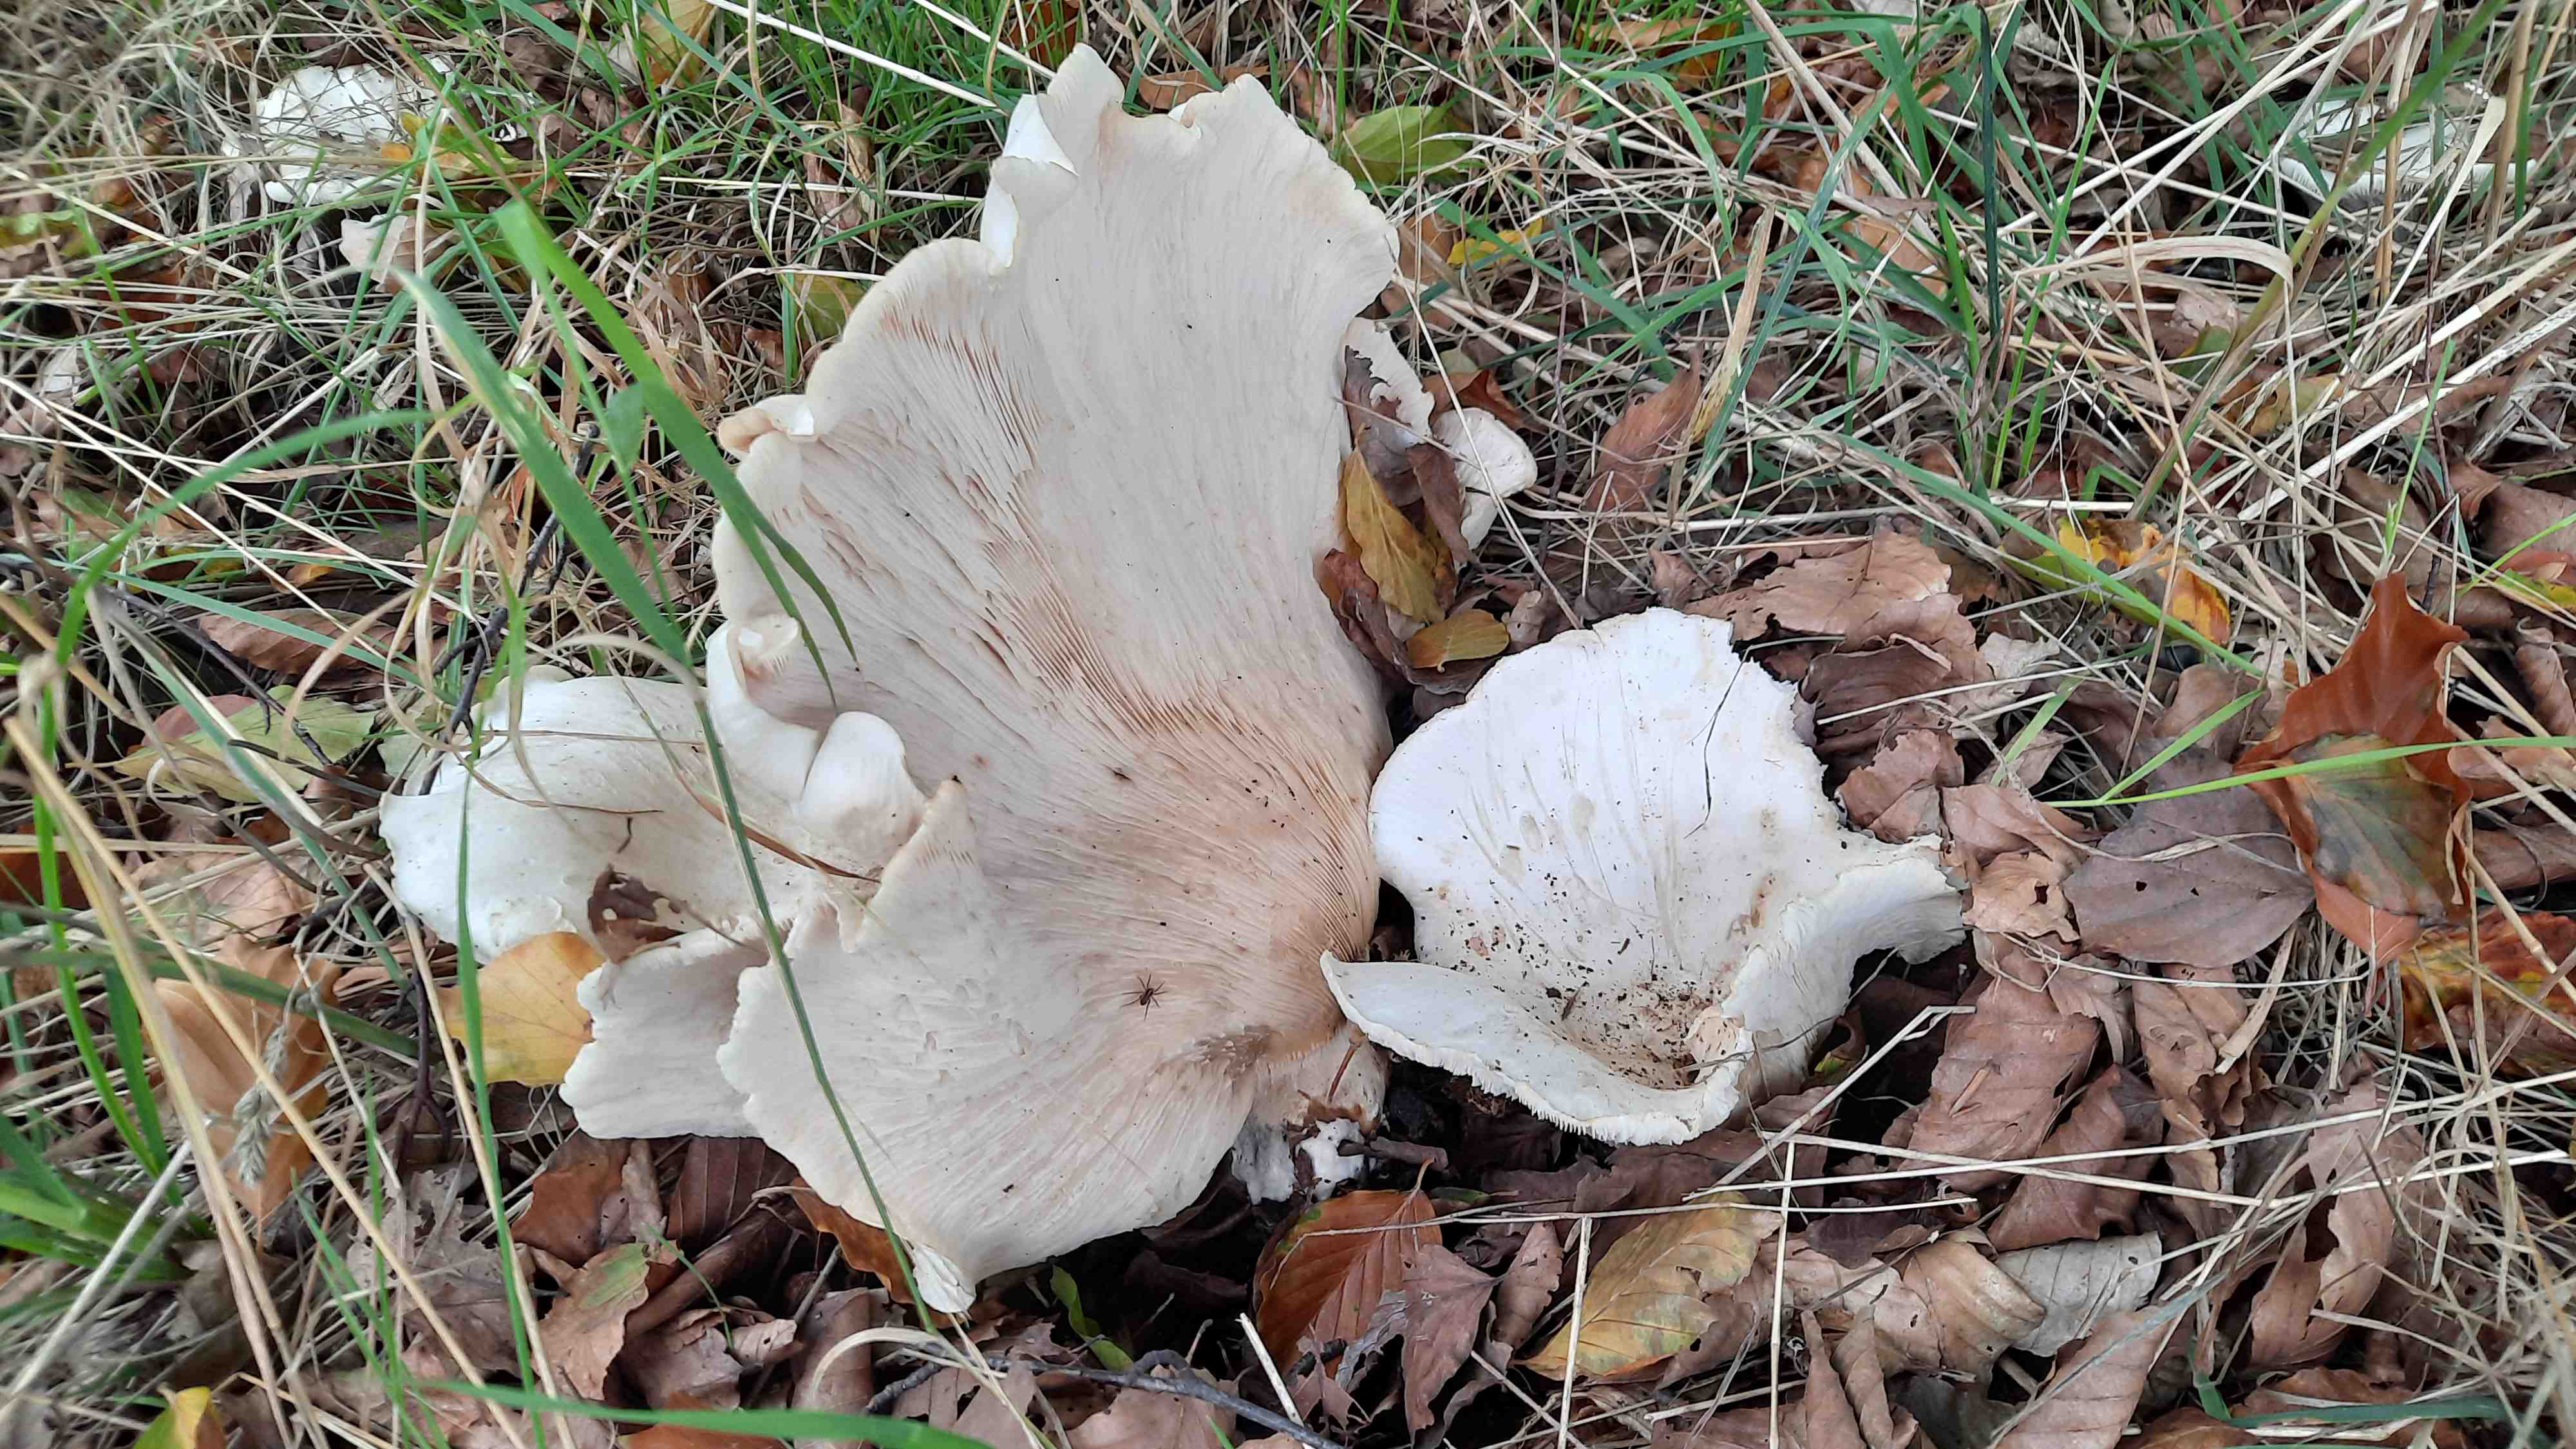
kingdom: Fungi
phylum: Basidiomycota
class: Agaricomycetes
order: Agaricales
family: Tricholomataceae
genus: Aspropaxillus
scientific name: Aspropaxillus giganteus
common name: kæmpe-tragtridderhat
